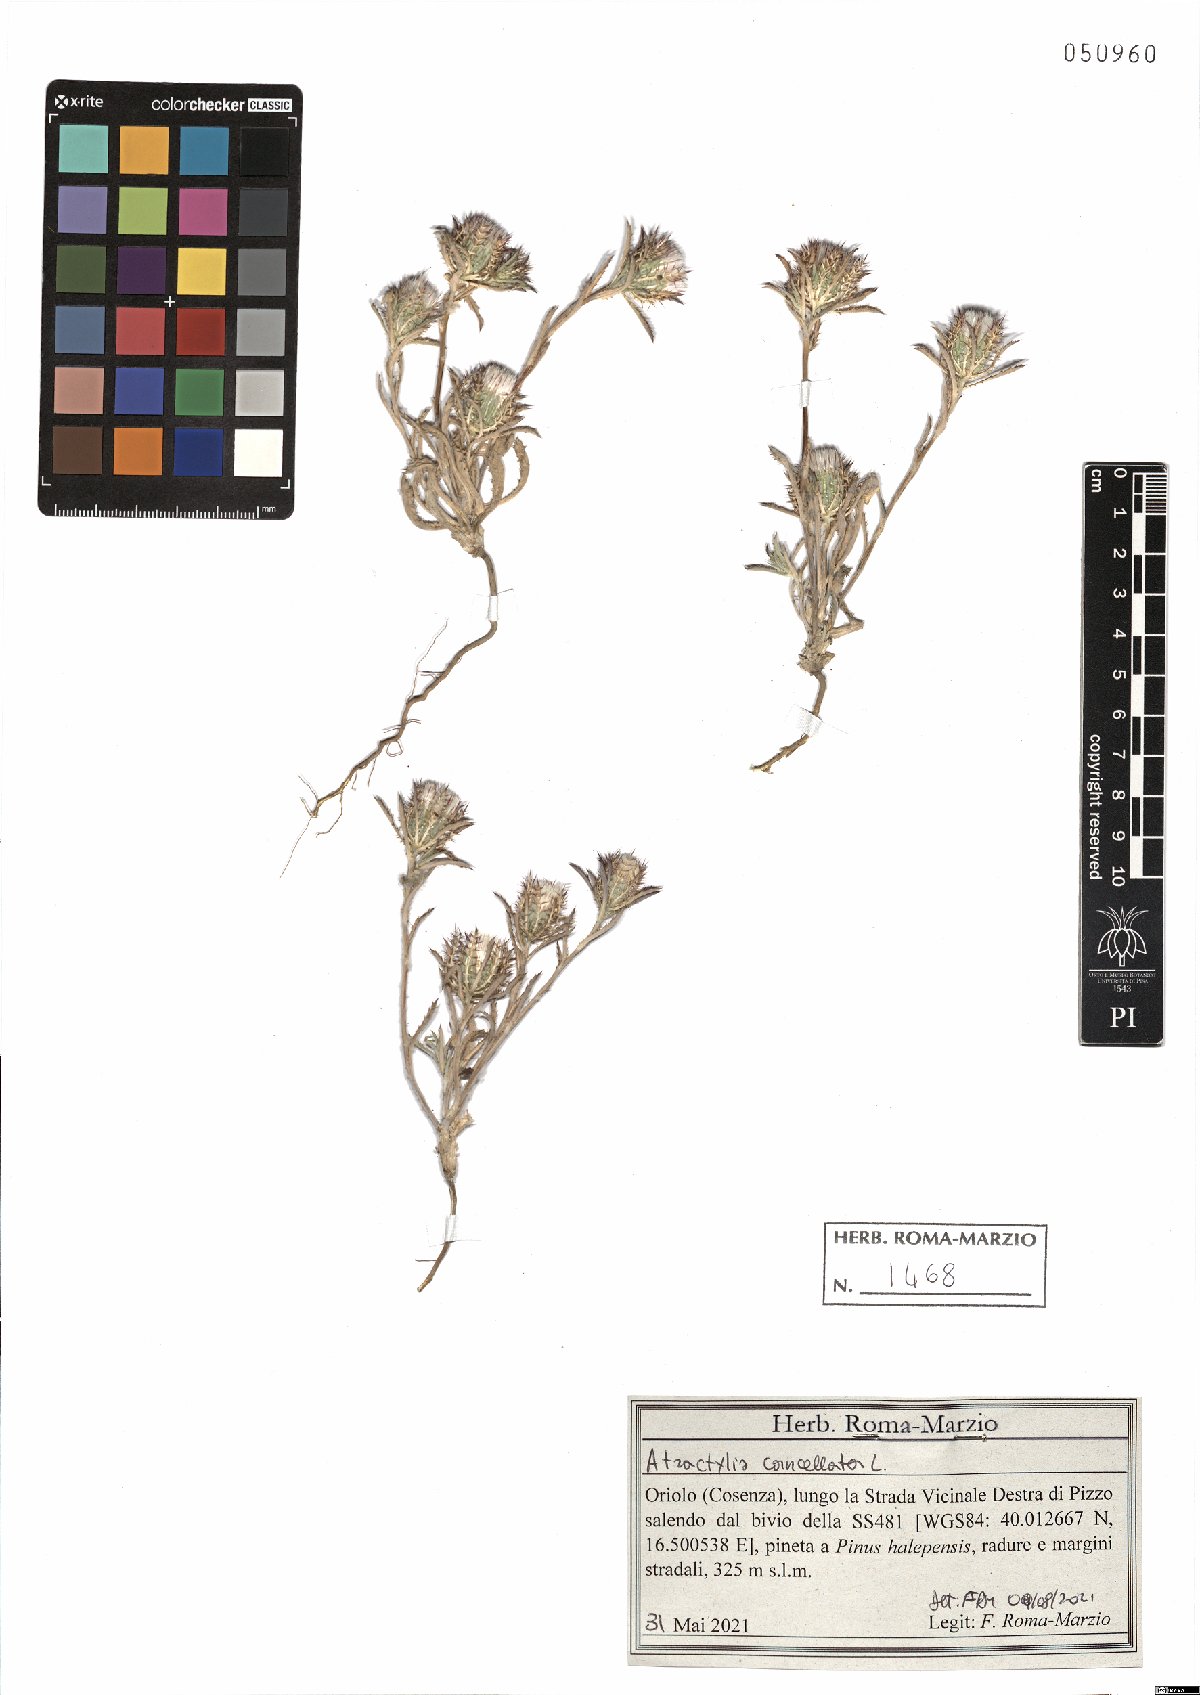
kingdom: Plantae
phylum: Tracheophyta
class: Magnoliopsida
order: Asterales
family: Asteraceae
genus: Atractylis
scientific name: Atractylis cancellata
